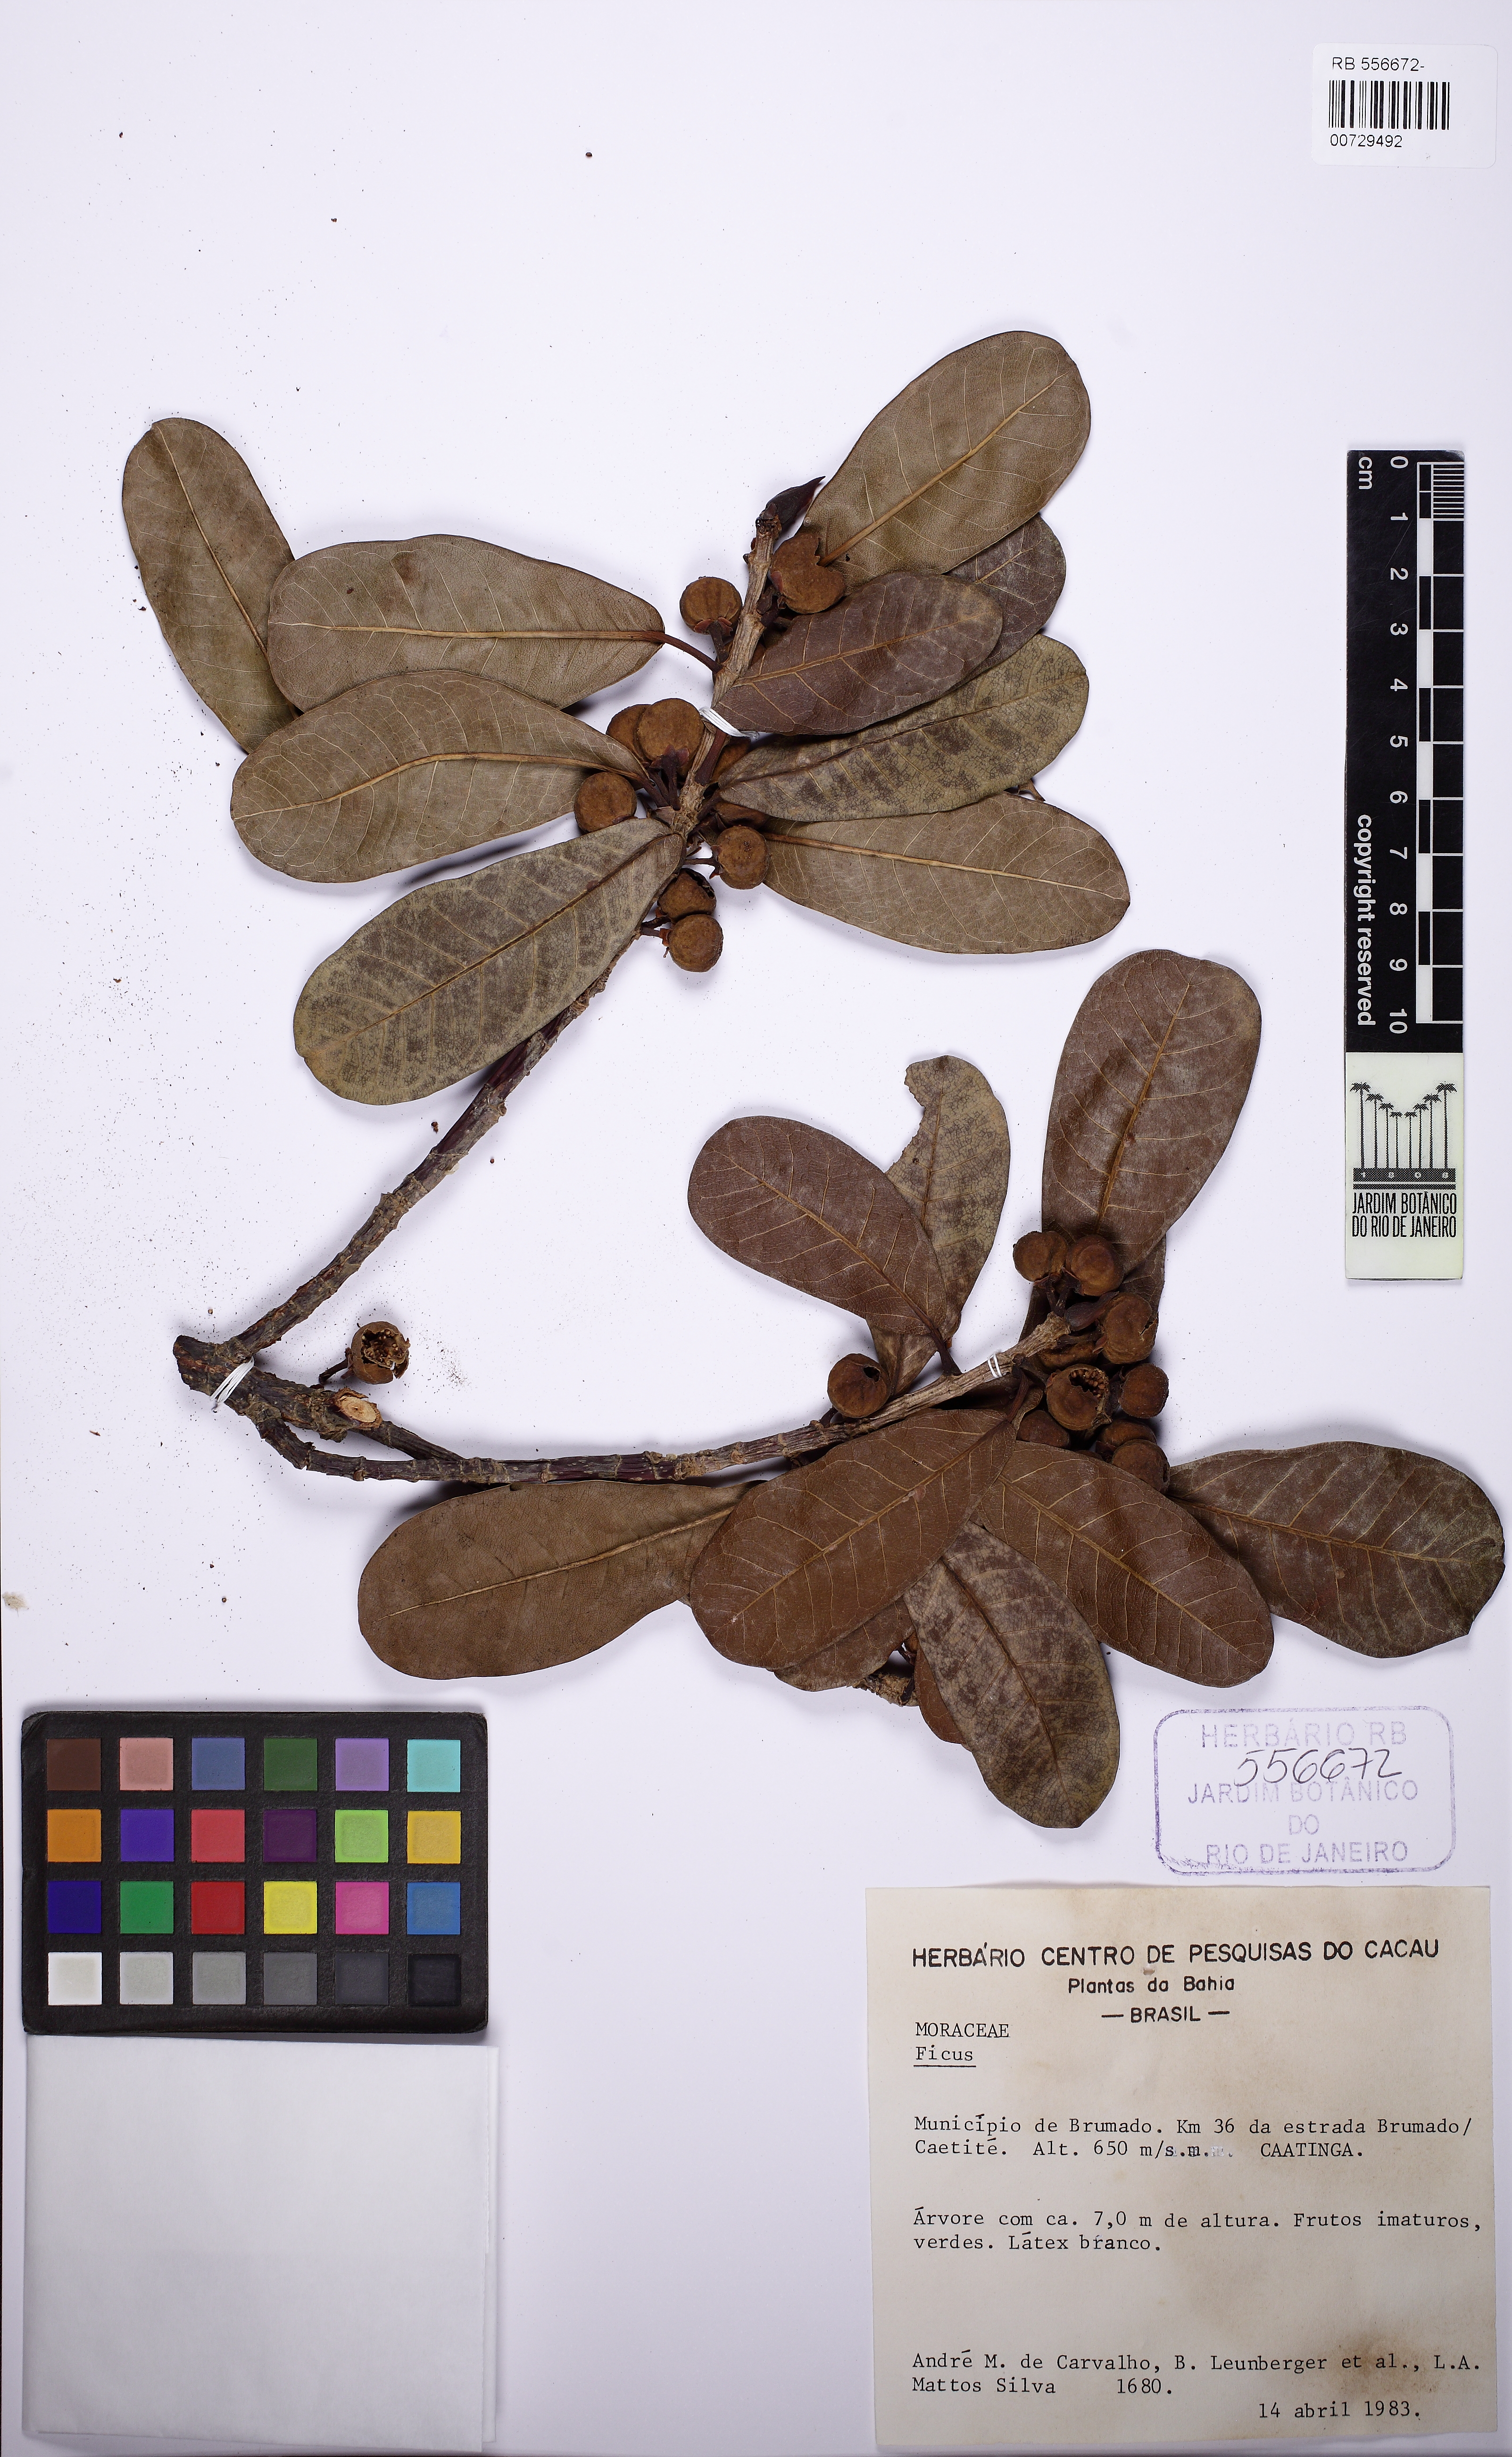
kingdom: Plantae
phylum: Tracheophyta
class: Magnoliopsida
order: Rosales
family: Moraceae
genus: Ficus
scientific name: Ficus caatingae
